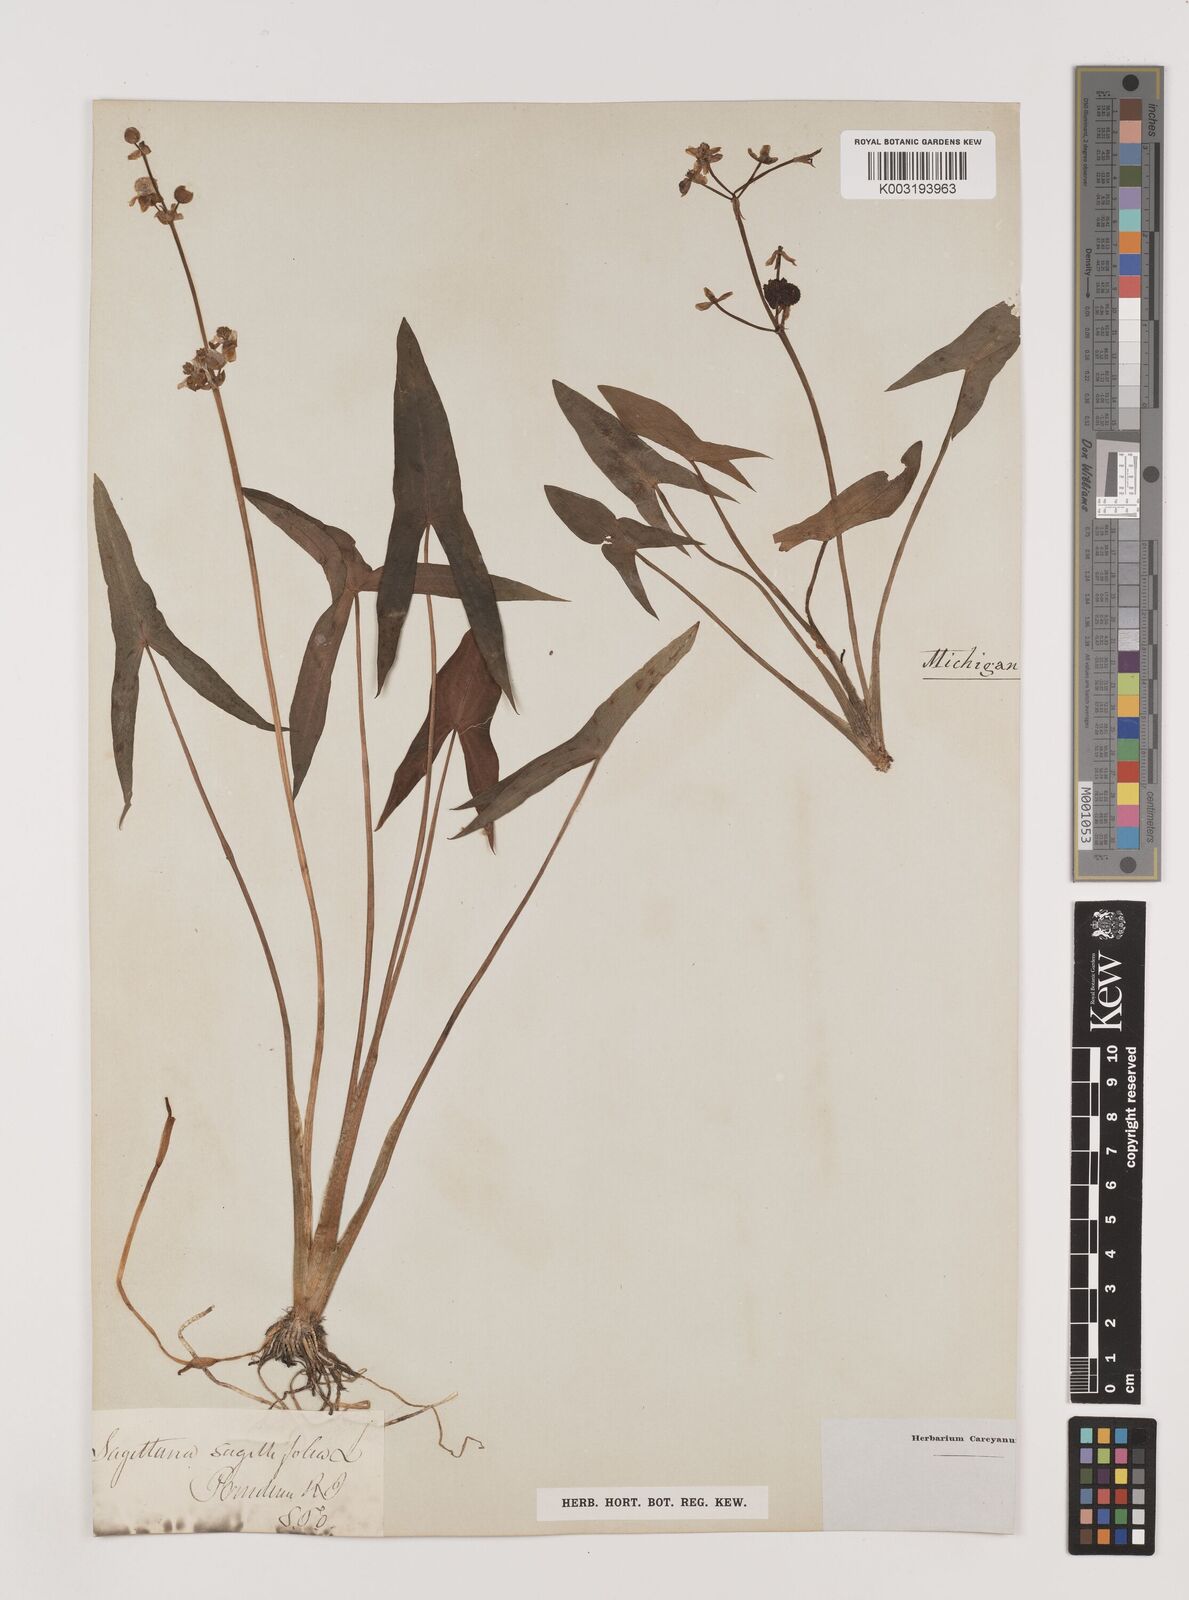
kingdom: Plantae
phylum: Tracheophyta
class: Liliopsida
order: Alismatales
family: Alismataceae
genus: Sagittaria
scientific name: Sagittaria sagittifolia
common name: Arrowhead
